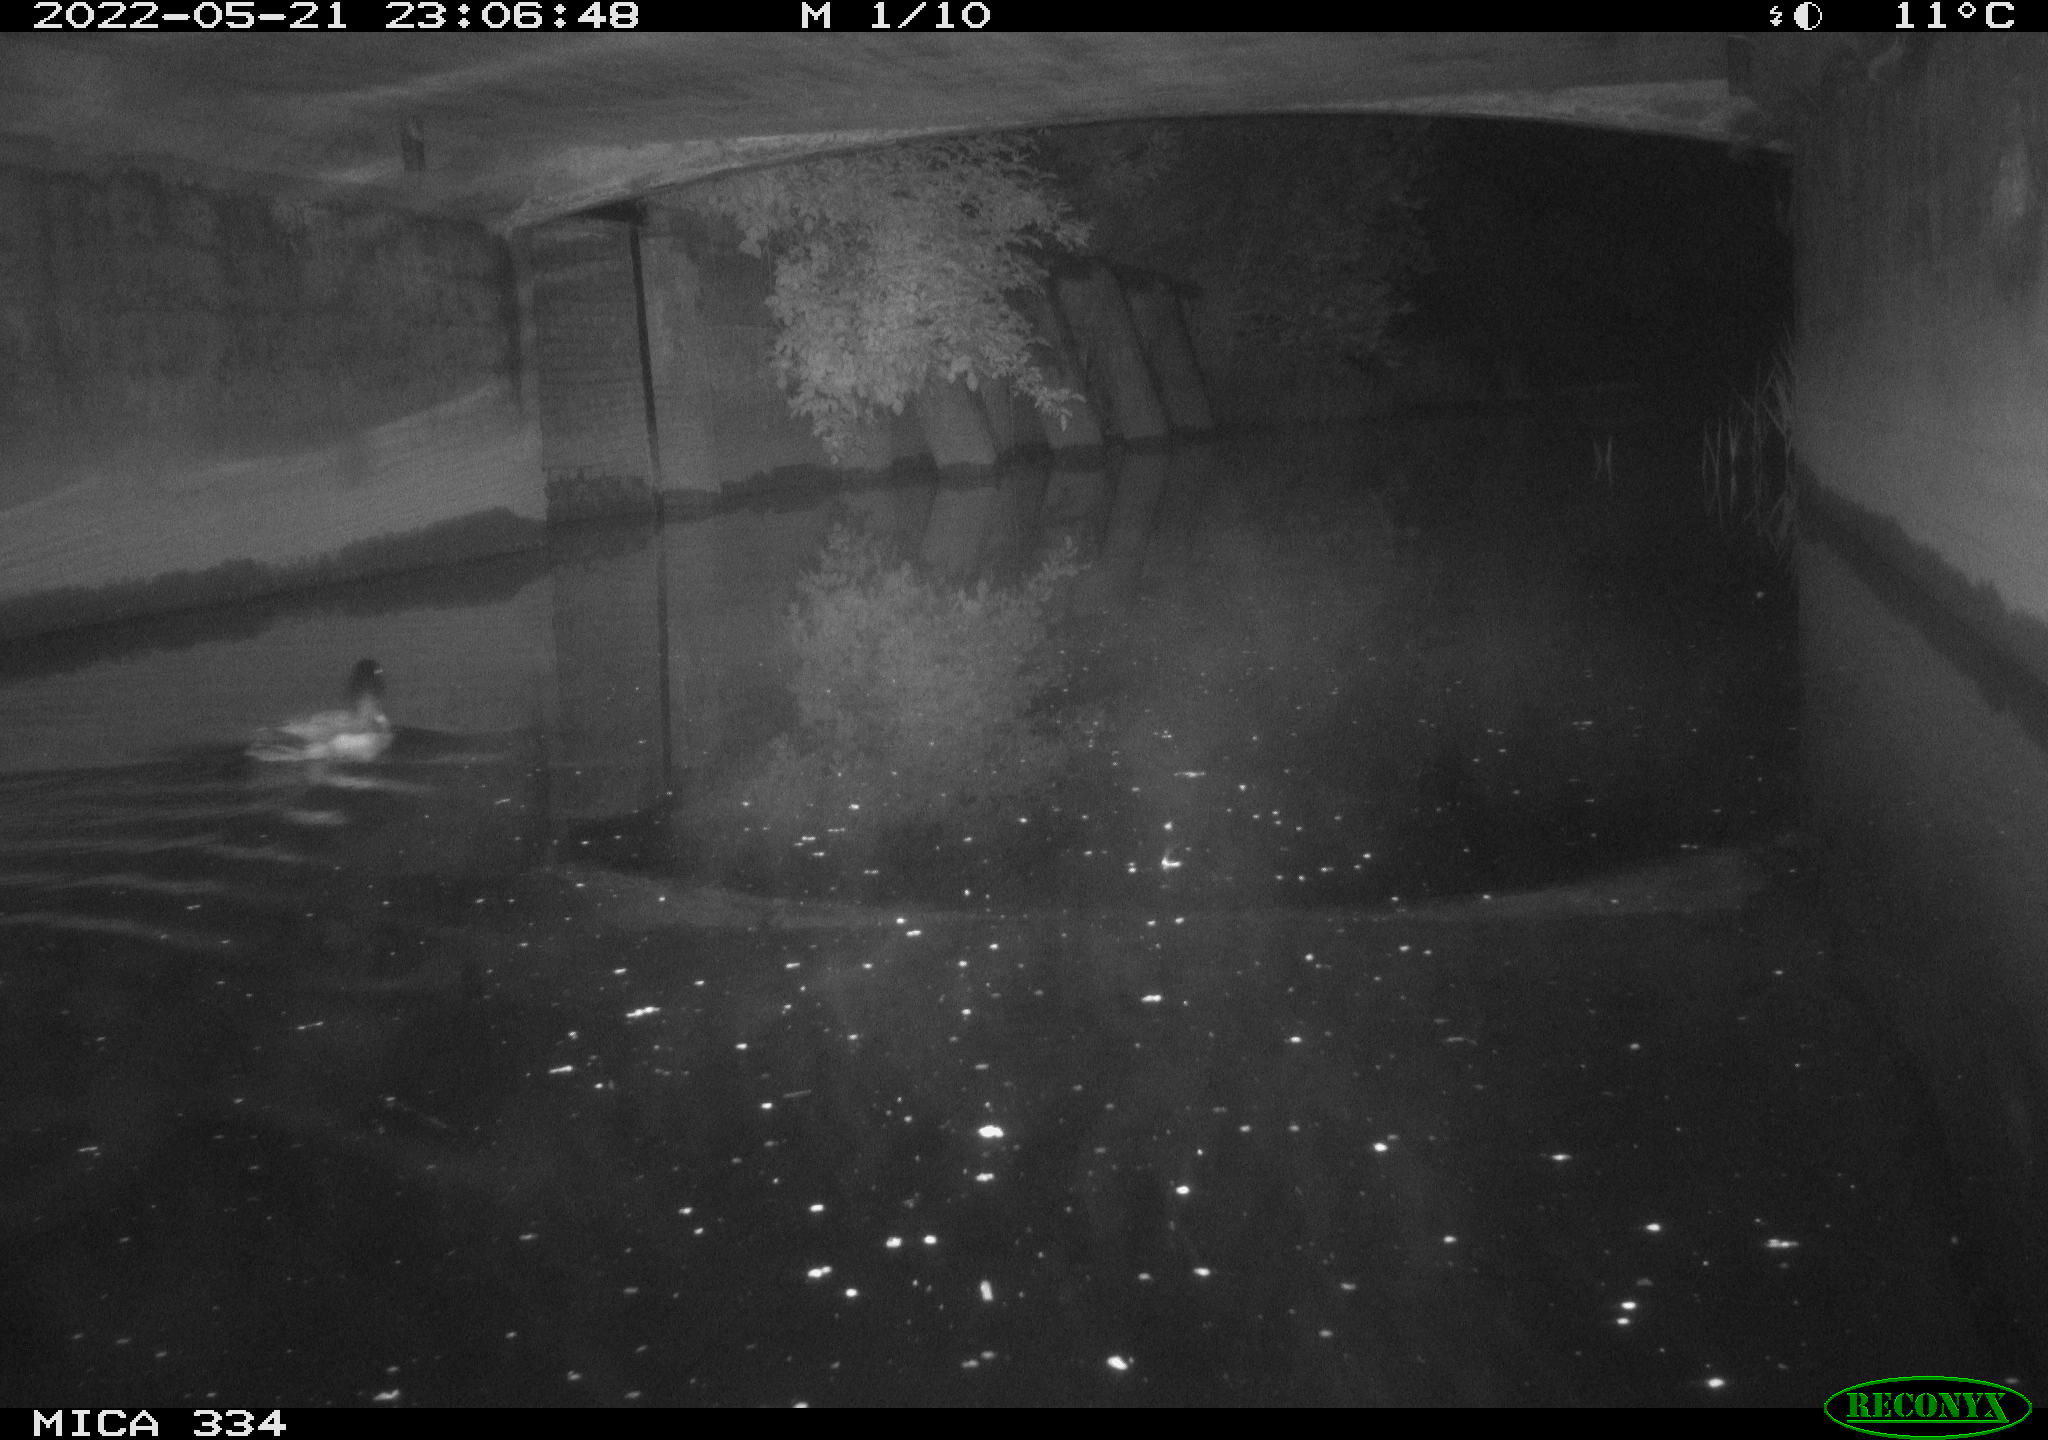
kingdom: Animalia
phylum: Chordata
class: Aves
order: Anseriformes
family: Anatidae
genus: Anas
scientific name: Anas platyrhynchos
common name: Mallard
